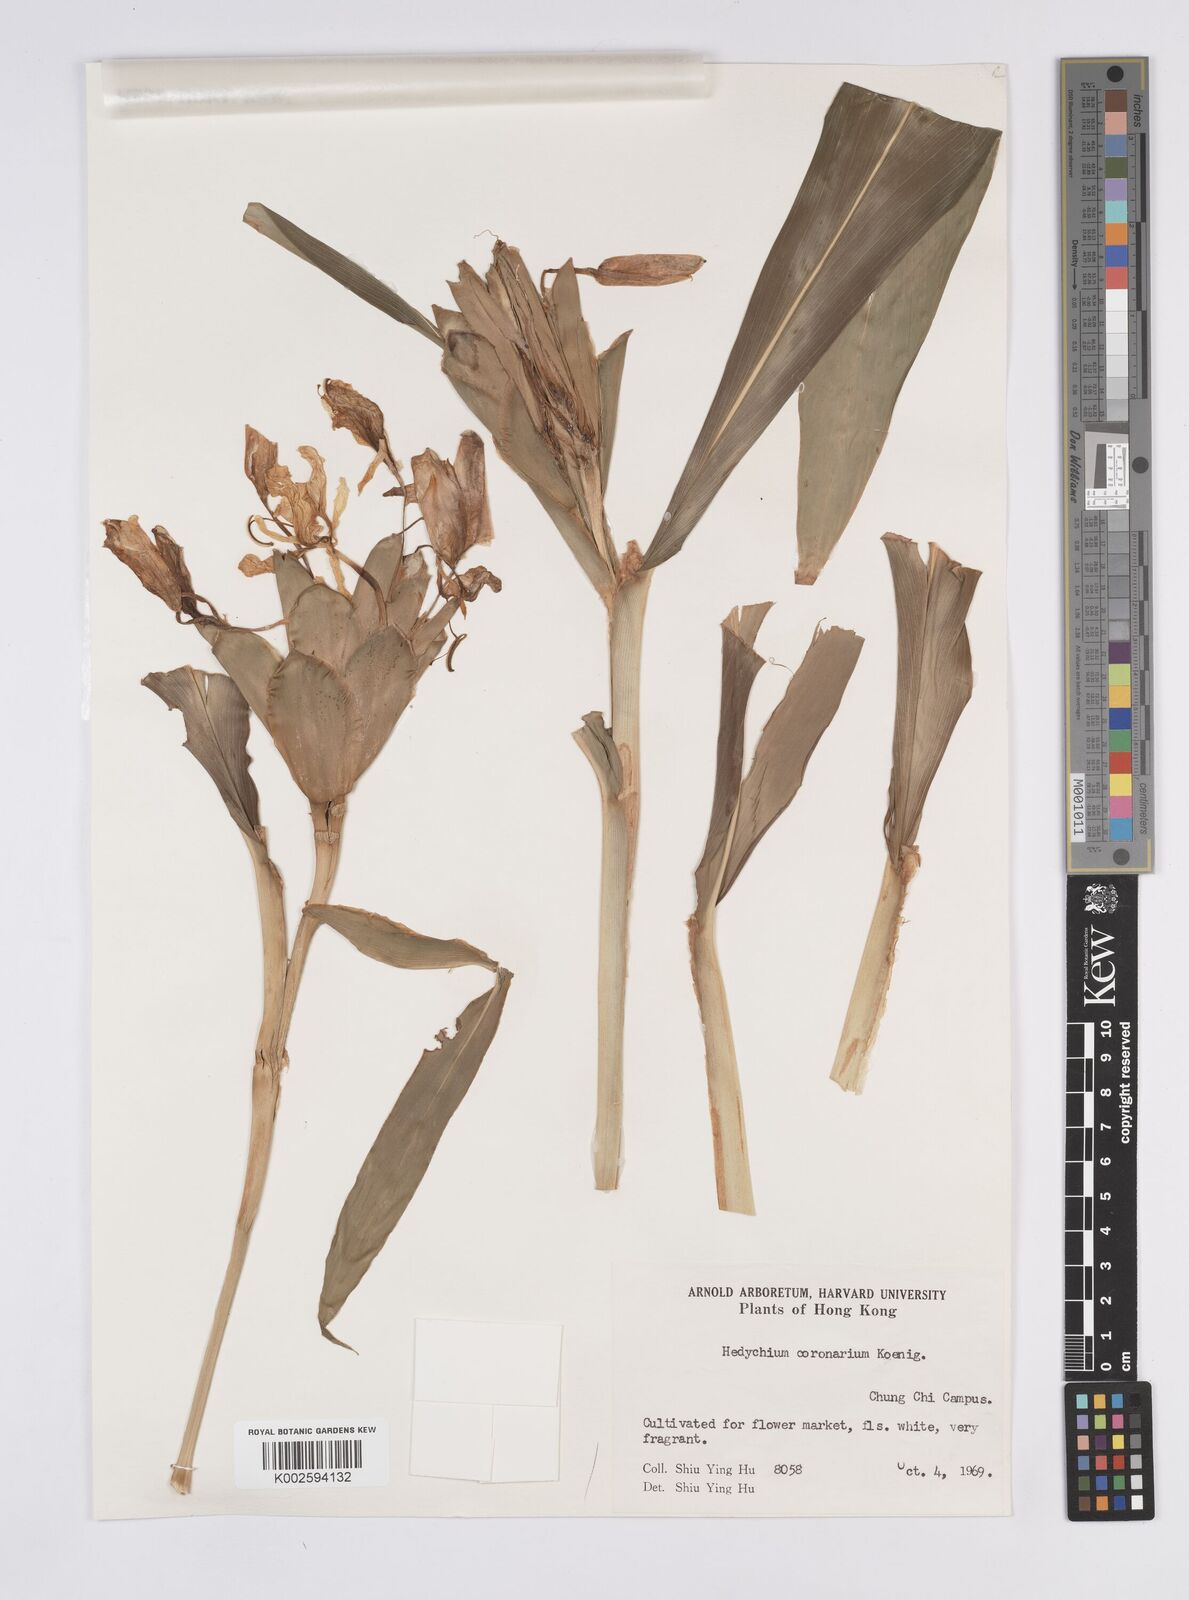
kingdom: Plantae
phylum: Tracheophyta
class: Liliopsida
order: Zingiberales
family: Zingiberaceae
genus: Hedychium
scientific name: Hedychium coronarium
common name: White garland-lily
